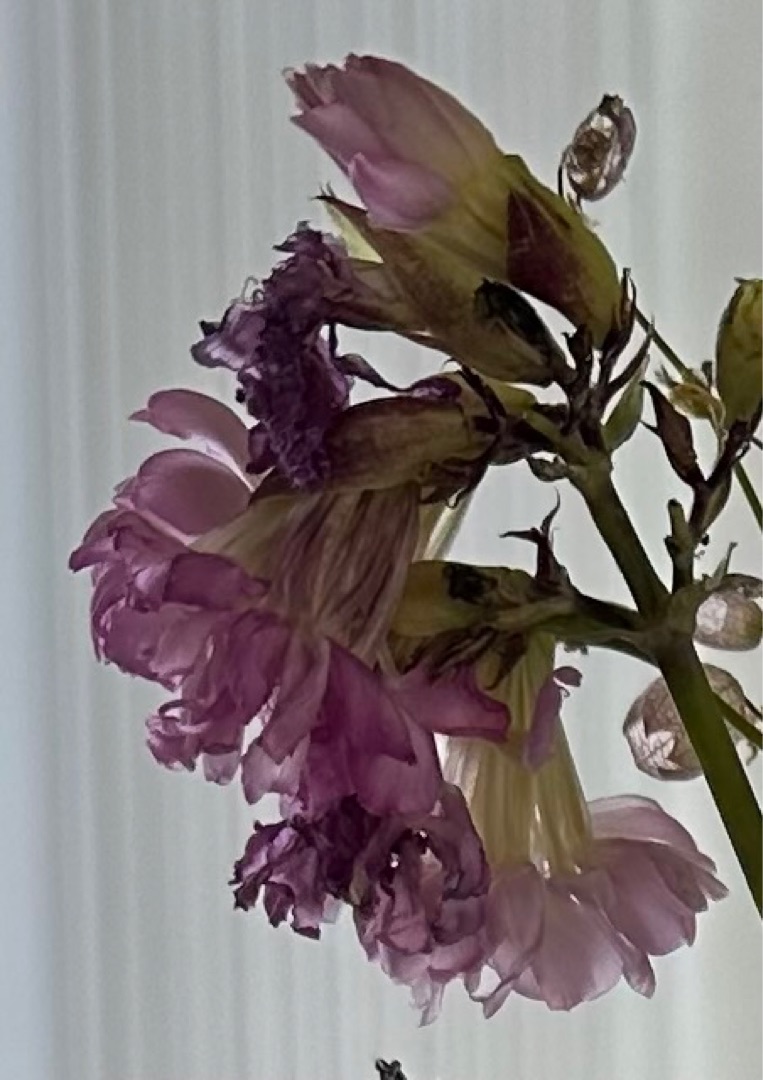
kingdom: Plantae
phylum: Tracheophyta
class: Magnoliopsida
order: Caryophyllales
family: Caryophyllaceae
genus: Saponaria
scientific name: Saponaria officinalis
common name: Sæbeurt
